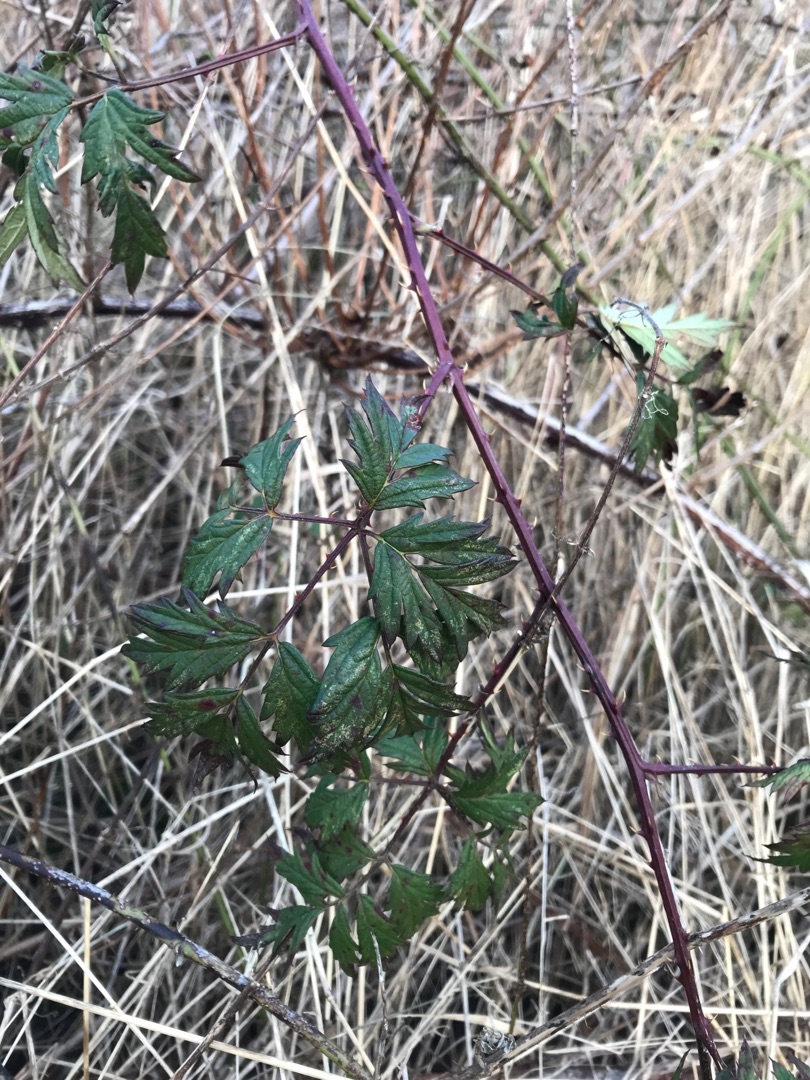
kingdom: Plantae
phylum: Tracheophyta
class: Magnoliopsida
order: Rosales
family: Rosaceae
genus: Rubus
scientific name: Rubus laciniatus
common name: Fliget brombær
